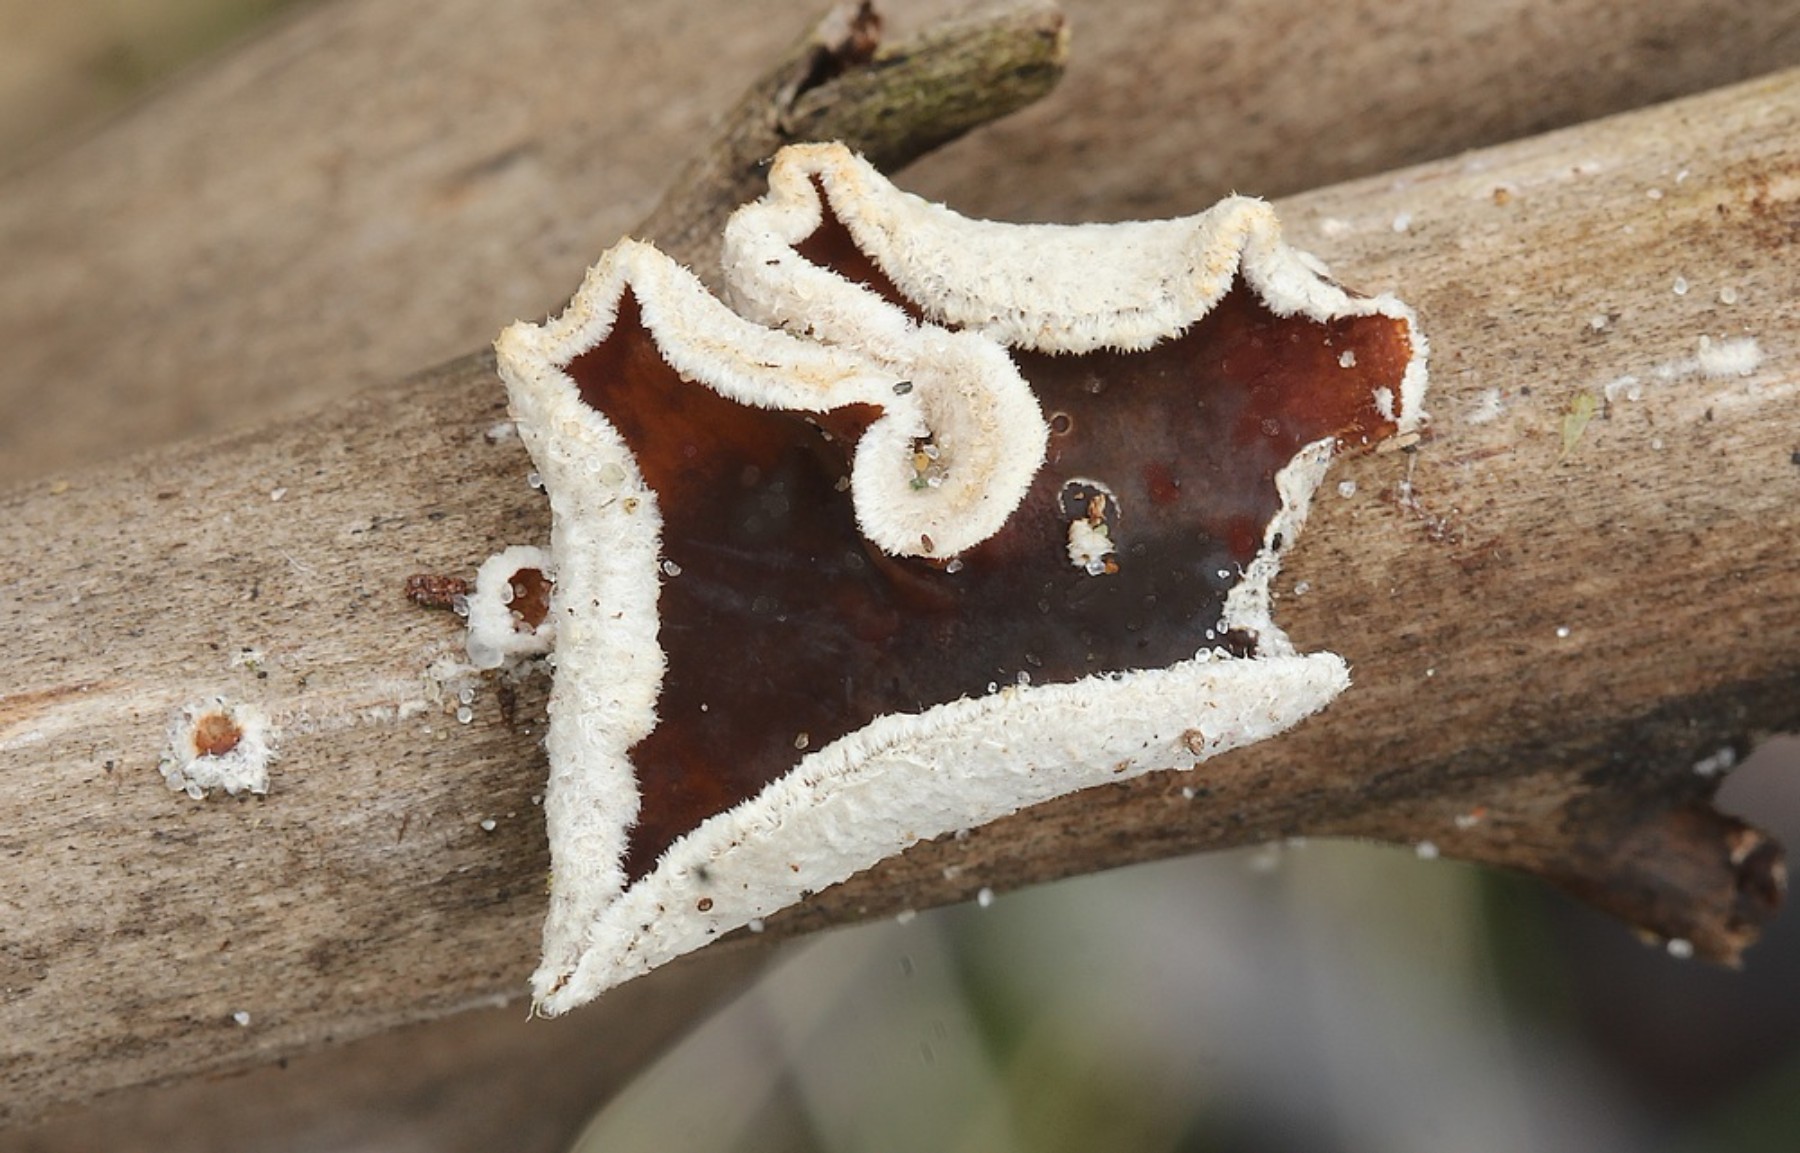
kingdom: Fungi
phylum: Basidiomycota
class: Agaricomycetes
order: Agaricales
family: Schizophyllaceae
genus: Schizophyllum
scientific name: Schizophyllum amplum
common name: poppel-hængeøre
